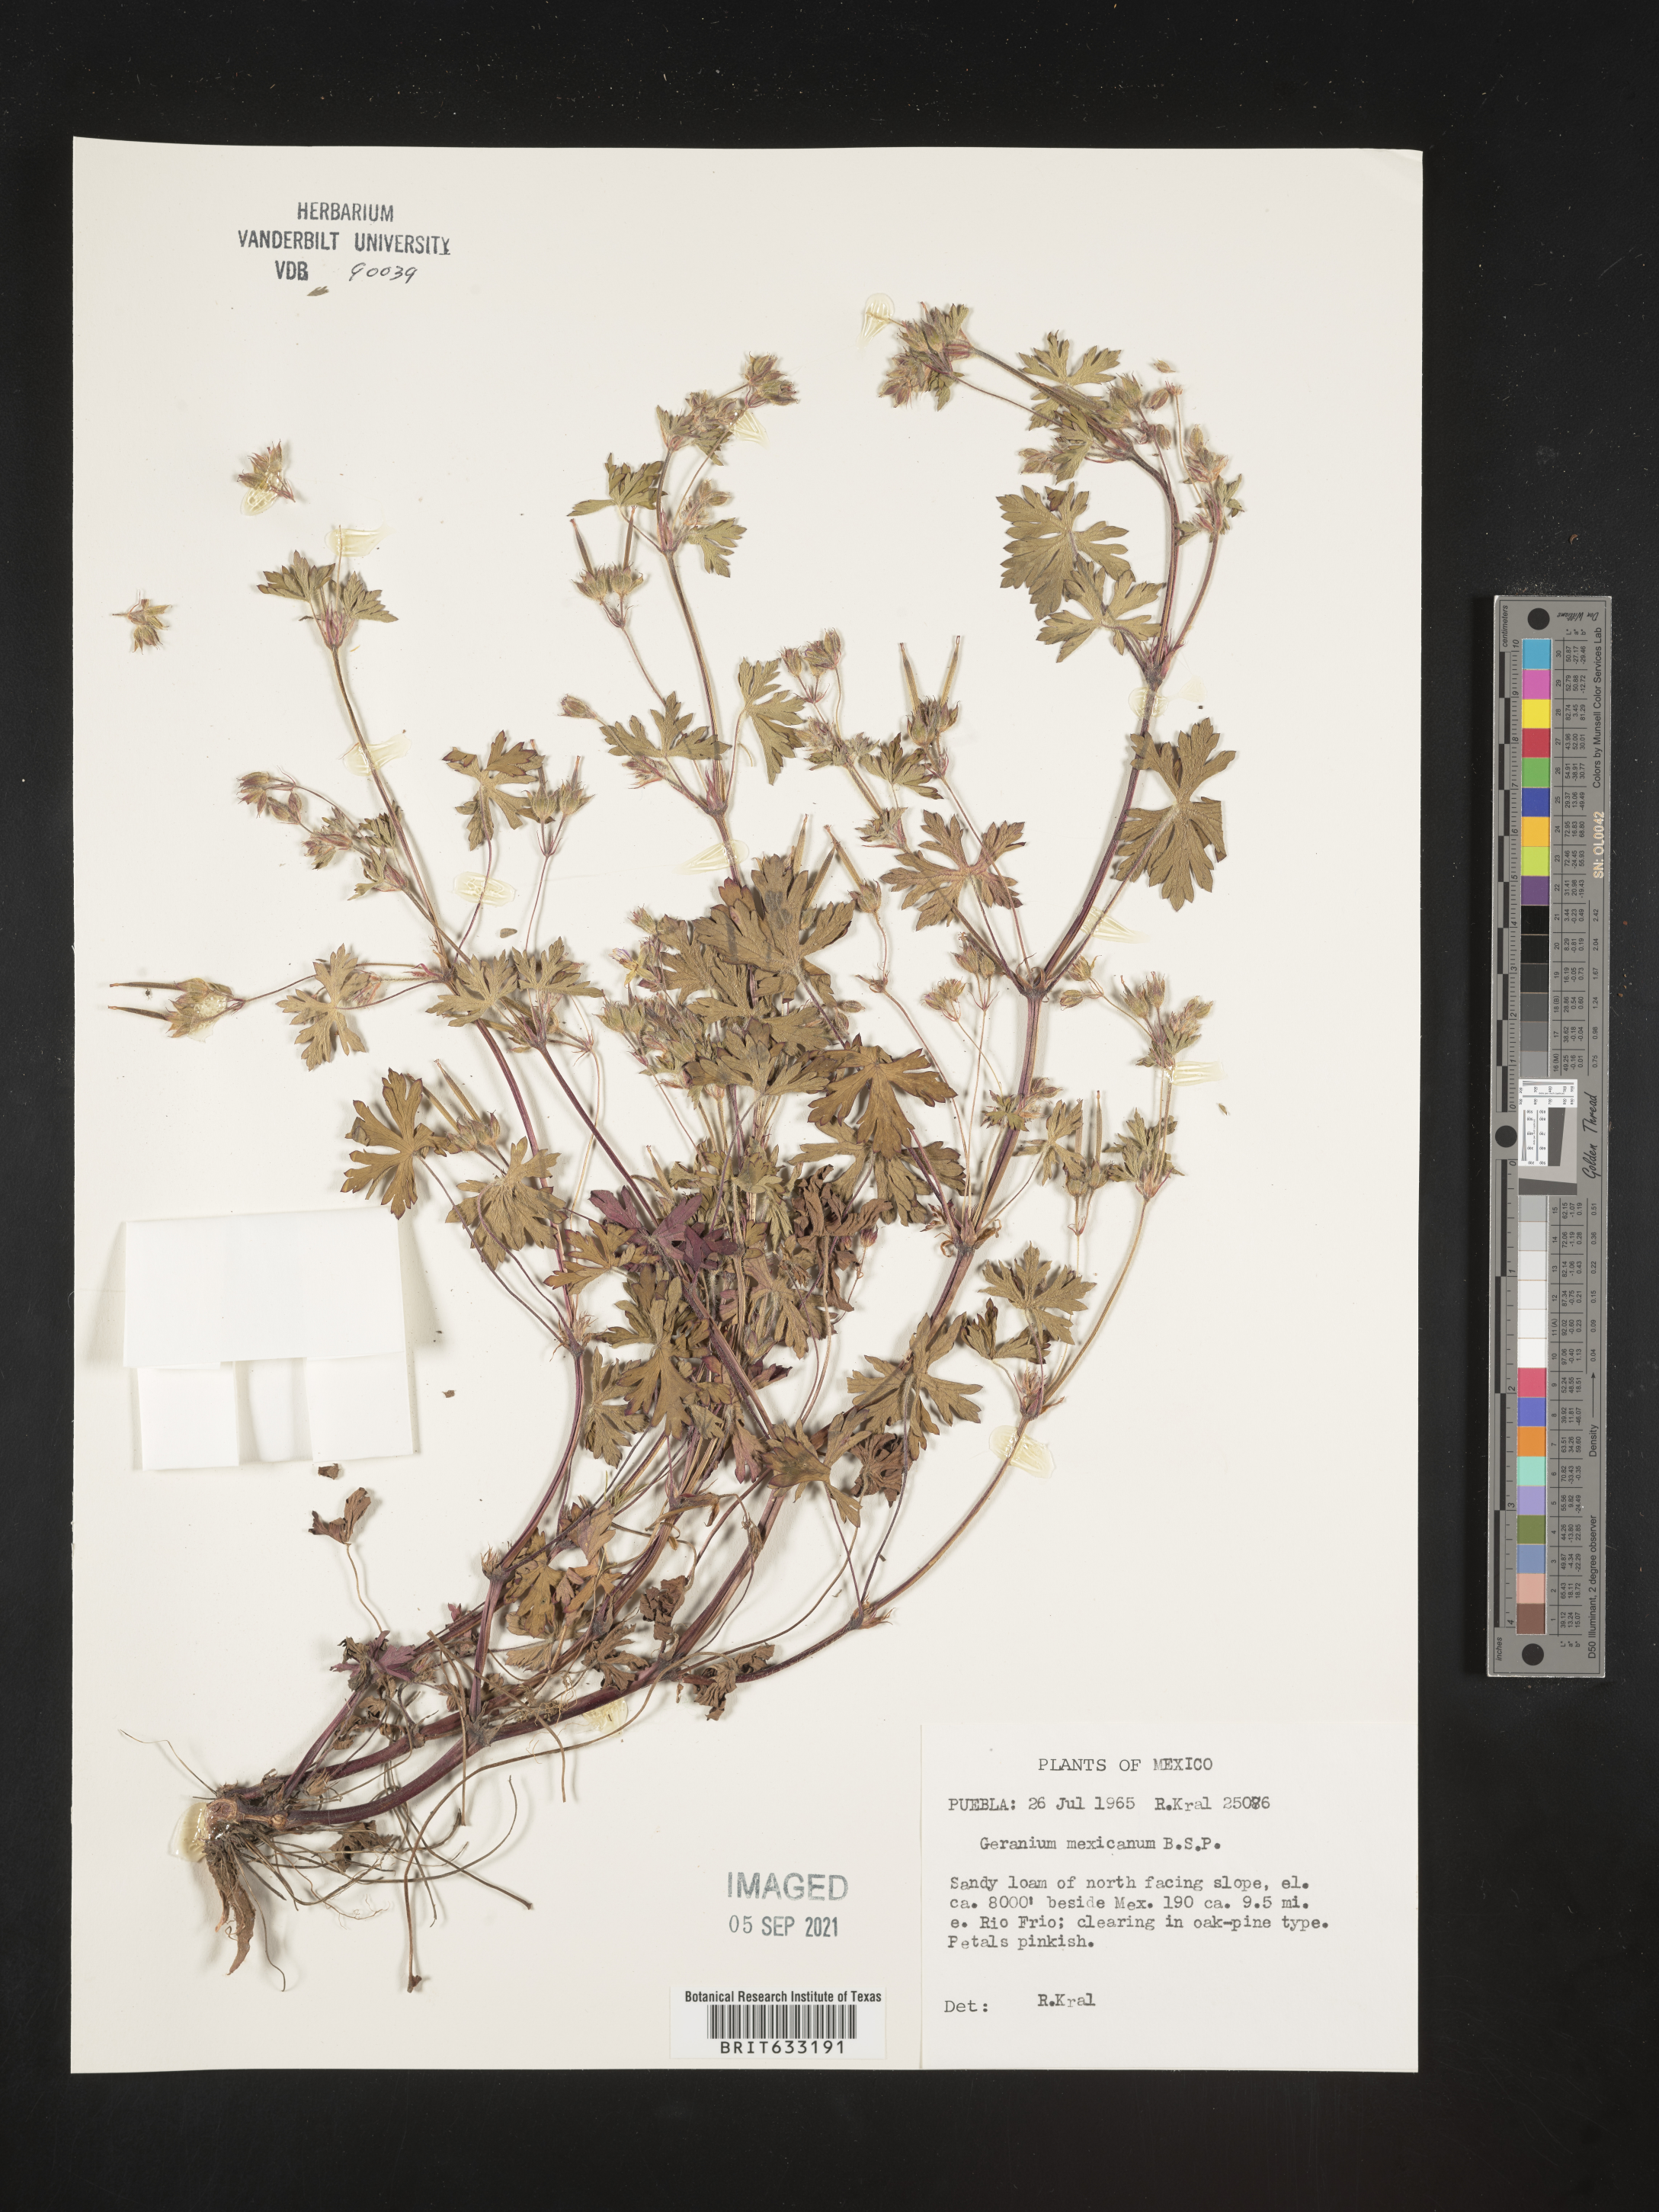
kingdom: Plantae
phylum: Tracheophyta
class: Magnoliopsida
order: Geraniales
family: Geraniaceae
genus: Geranium
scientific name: Geranium
